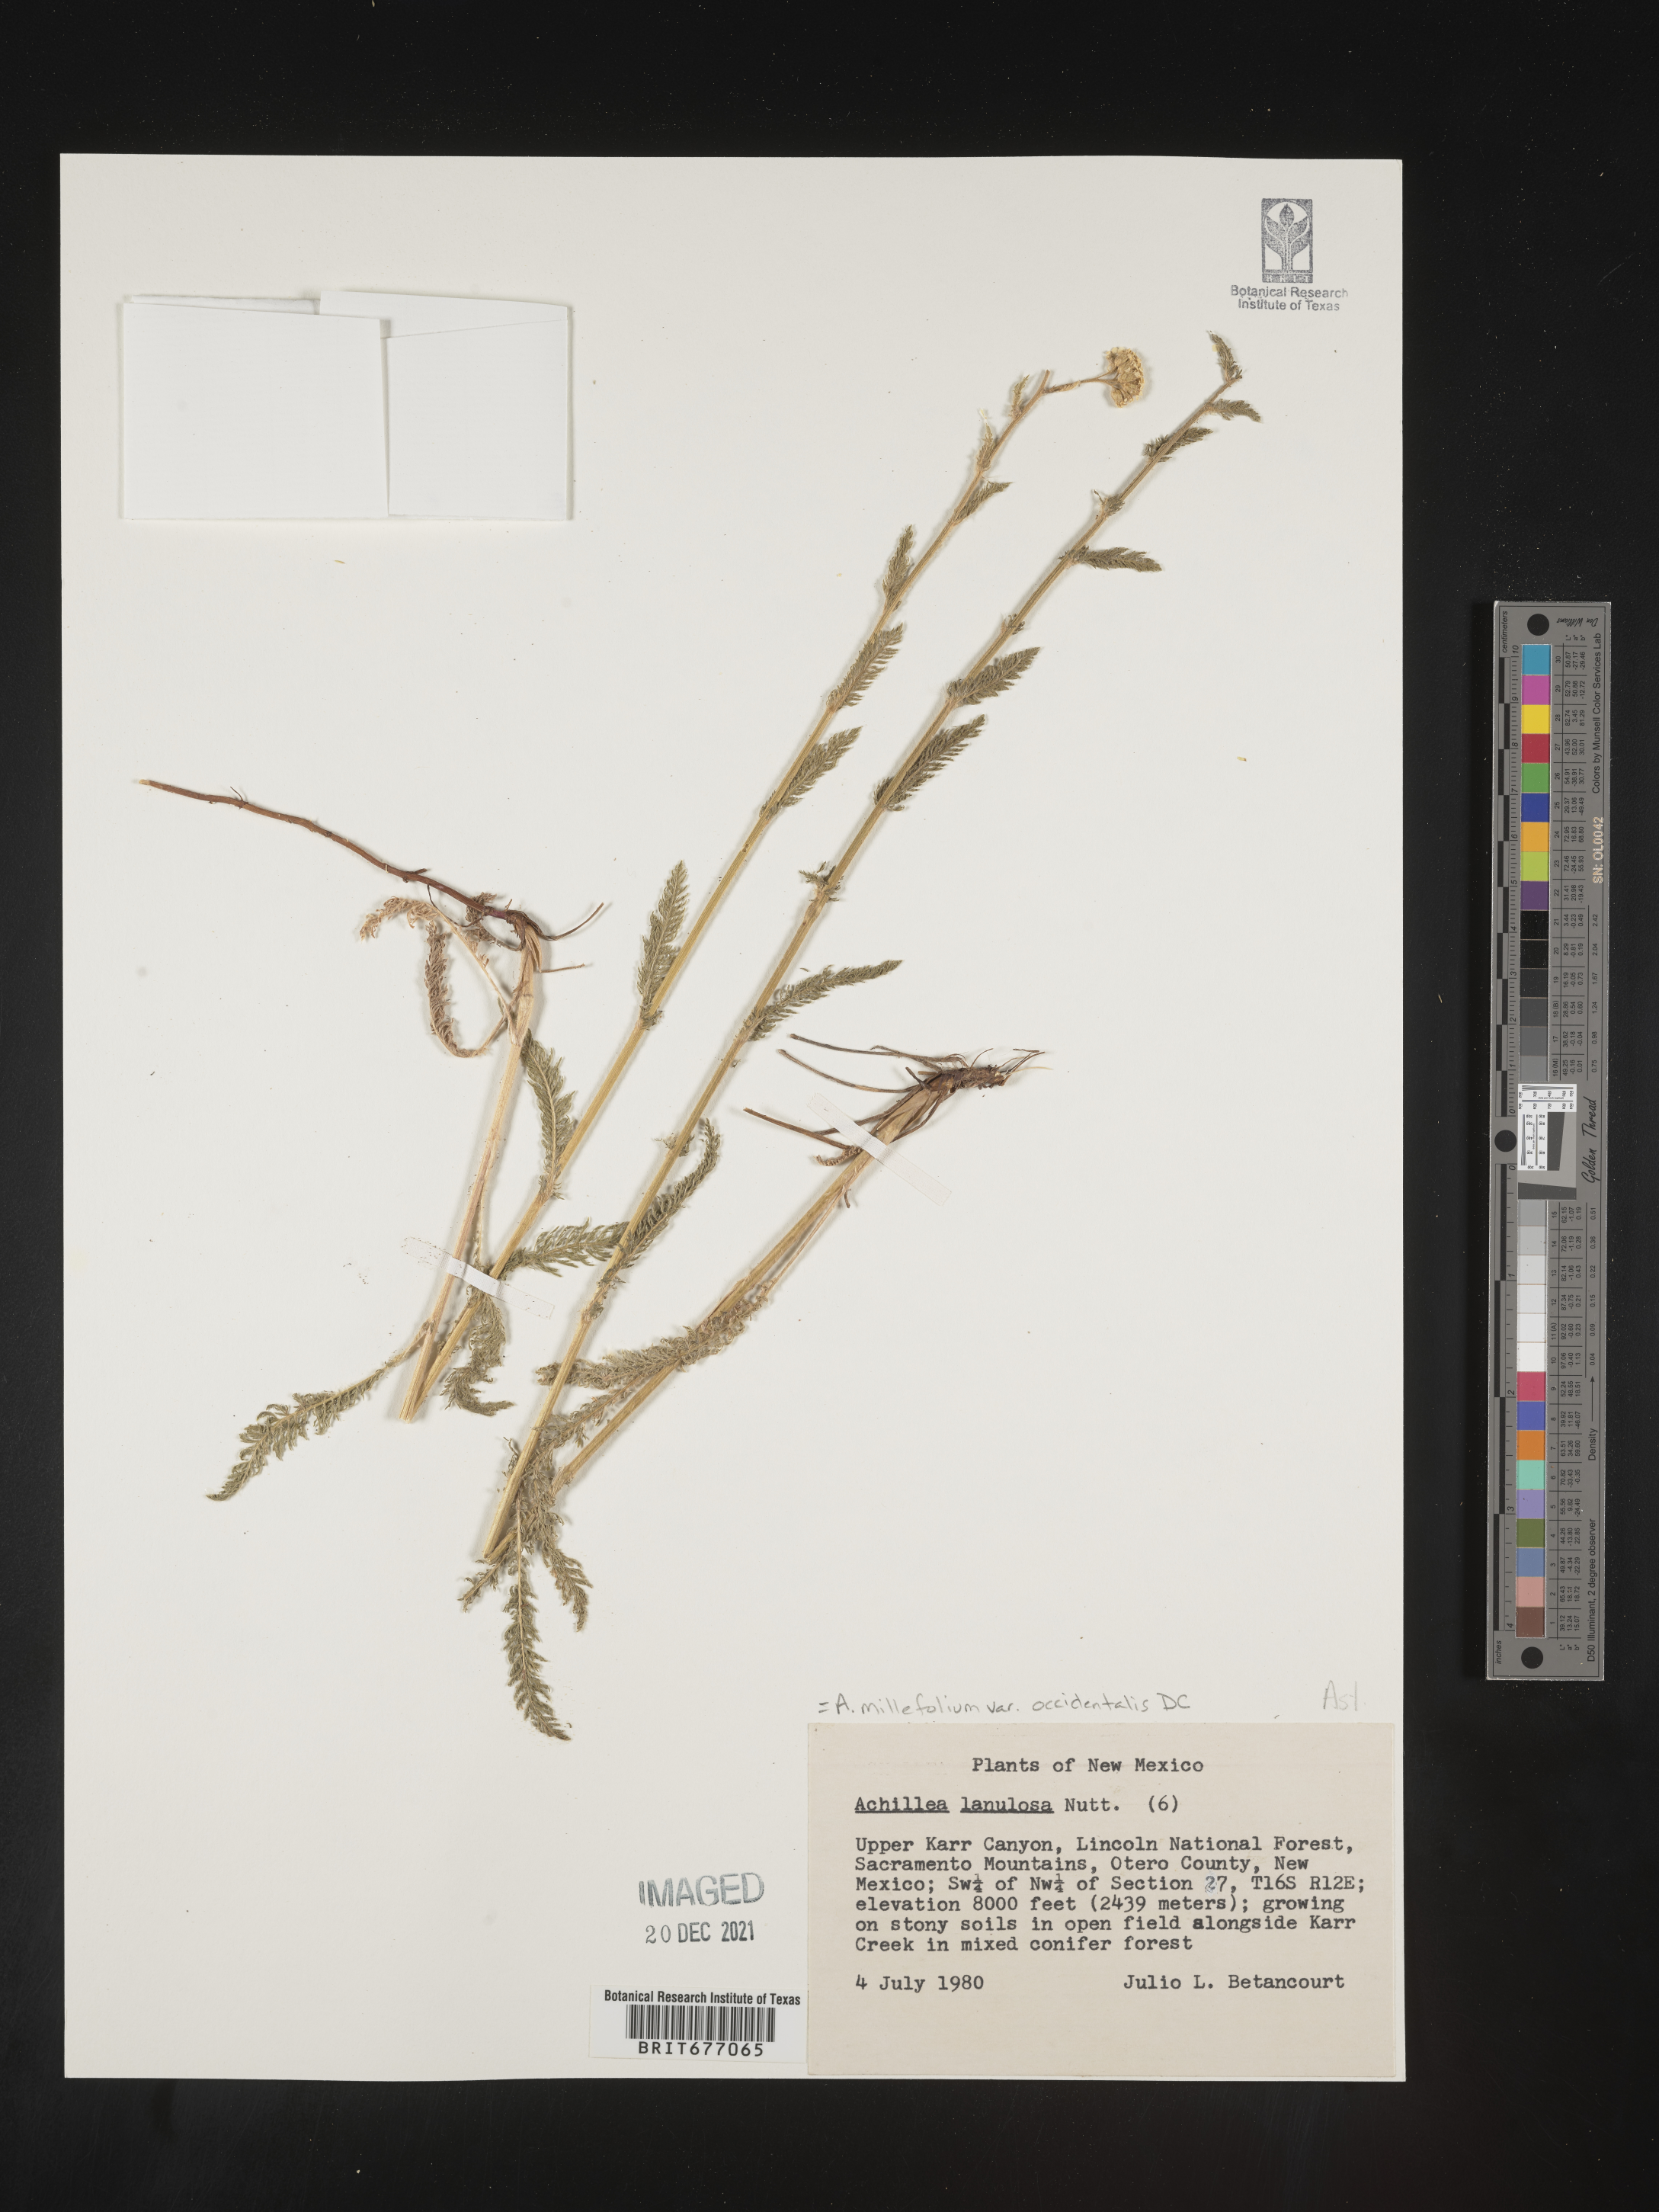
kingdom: Plantae
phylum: Tracheophyta
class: Magnoliopsida
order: Asterales
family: Asteraceae
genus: Achillea
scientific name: Achillea millefolium
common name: Yarrow
